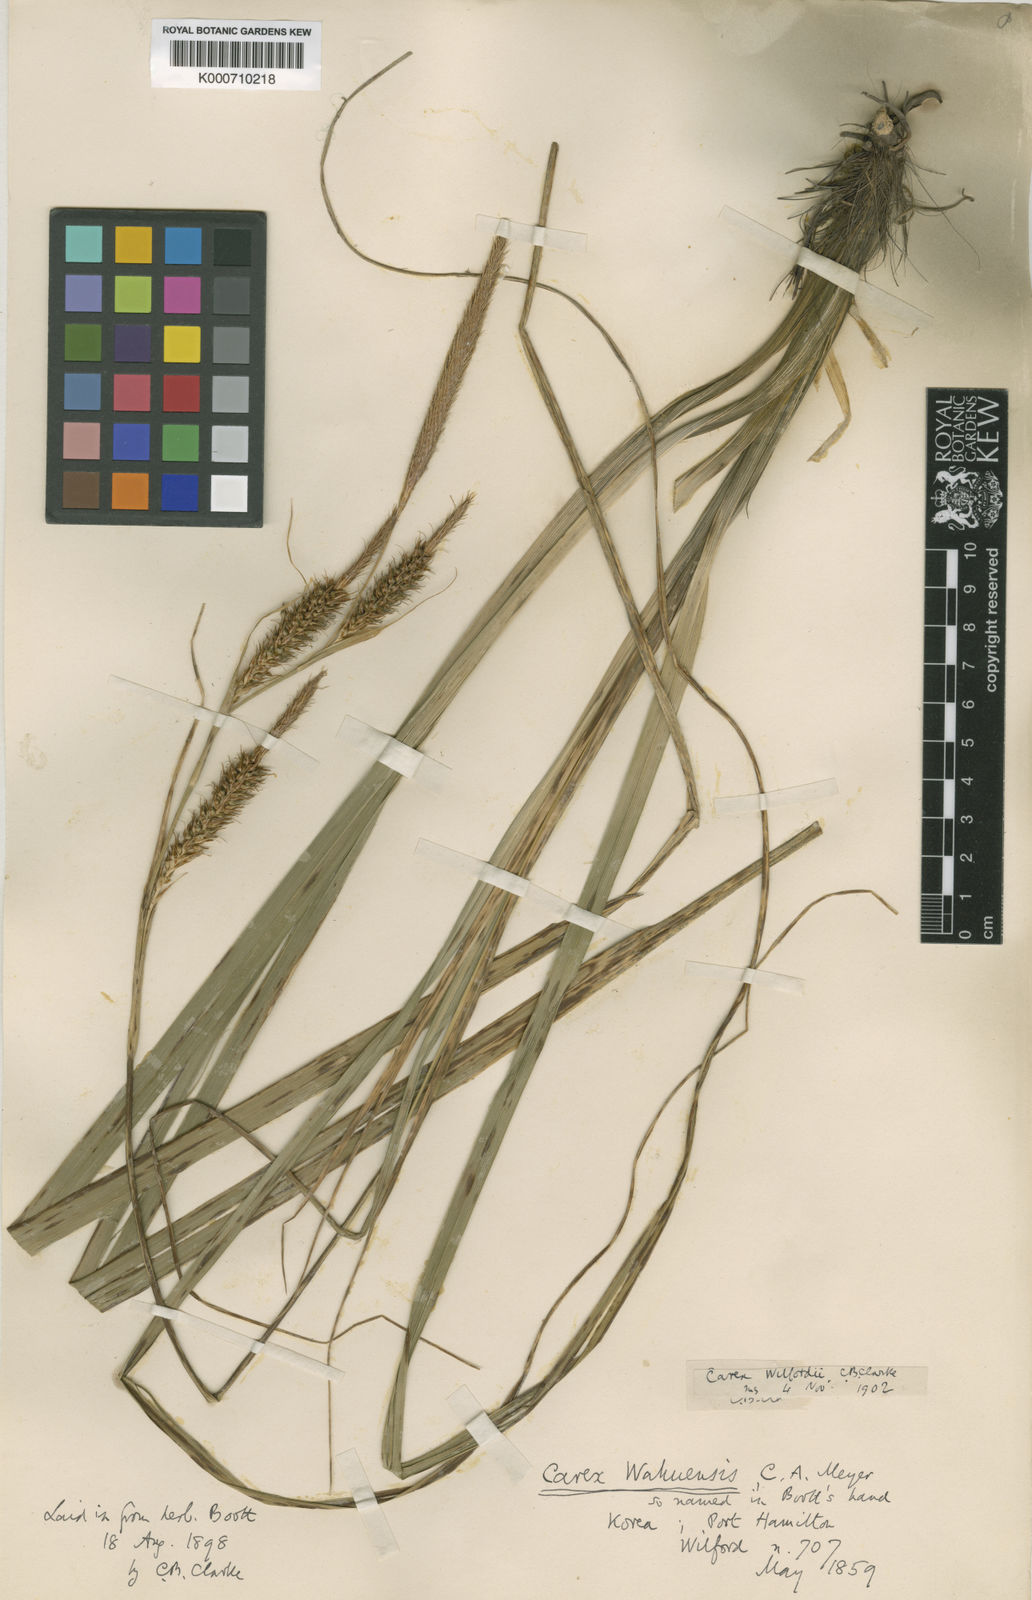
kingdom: Plantae
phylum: Tracheophyta
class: Liliopsida
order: Poales
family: Cyperaceae
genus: Carex
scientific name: Carex wahuensis
